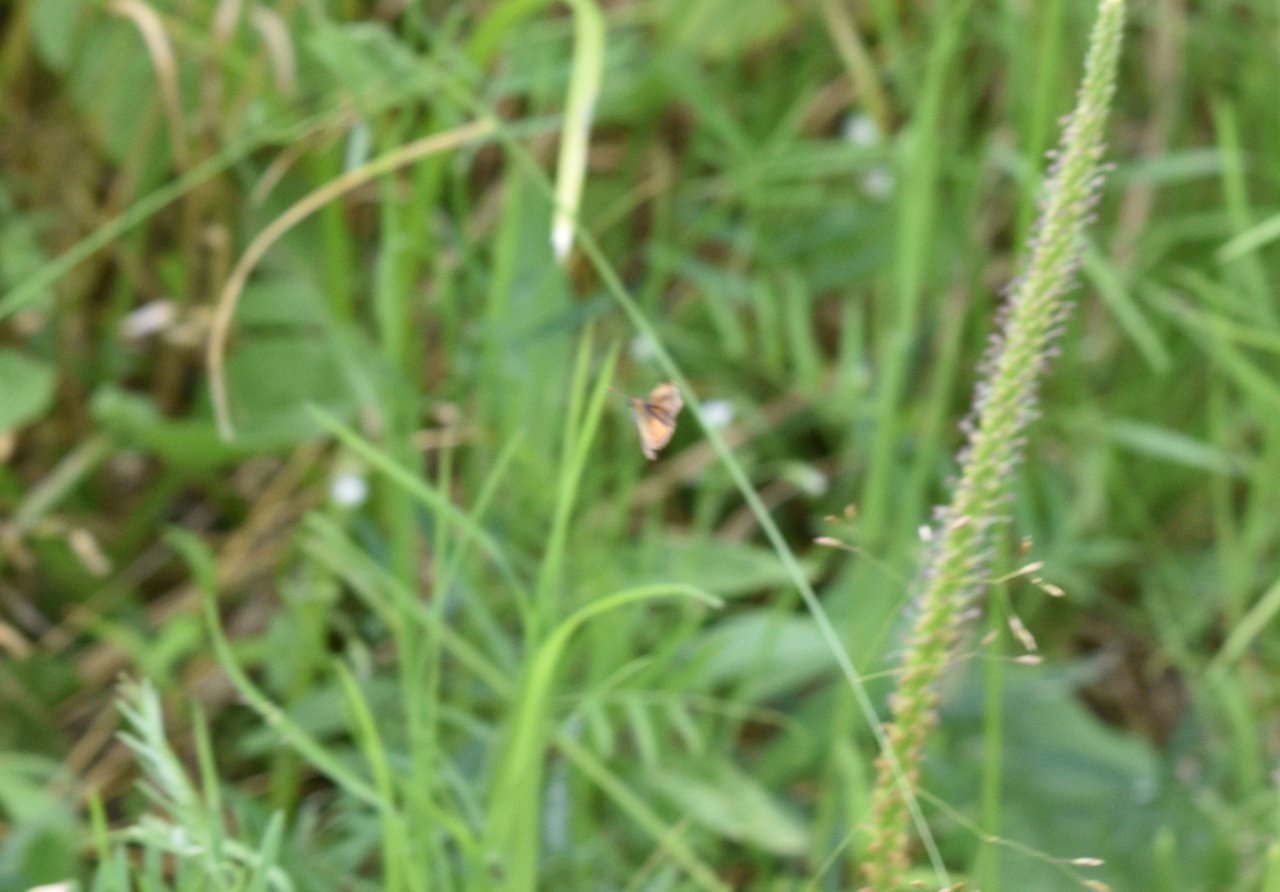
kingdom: Animalia
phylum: Arthropoda
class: Insecta
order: Lepidoptera
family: Hesperiidae
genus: Ancyloxypha
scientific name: Ancyloxypha numitor
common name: Least Skipper
